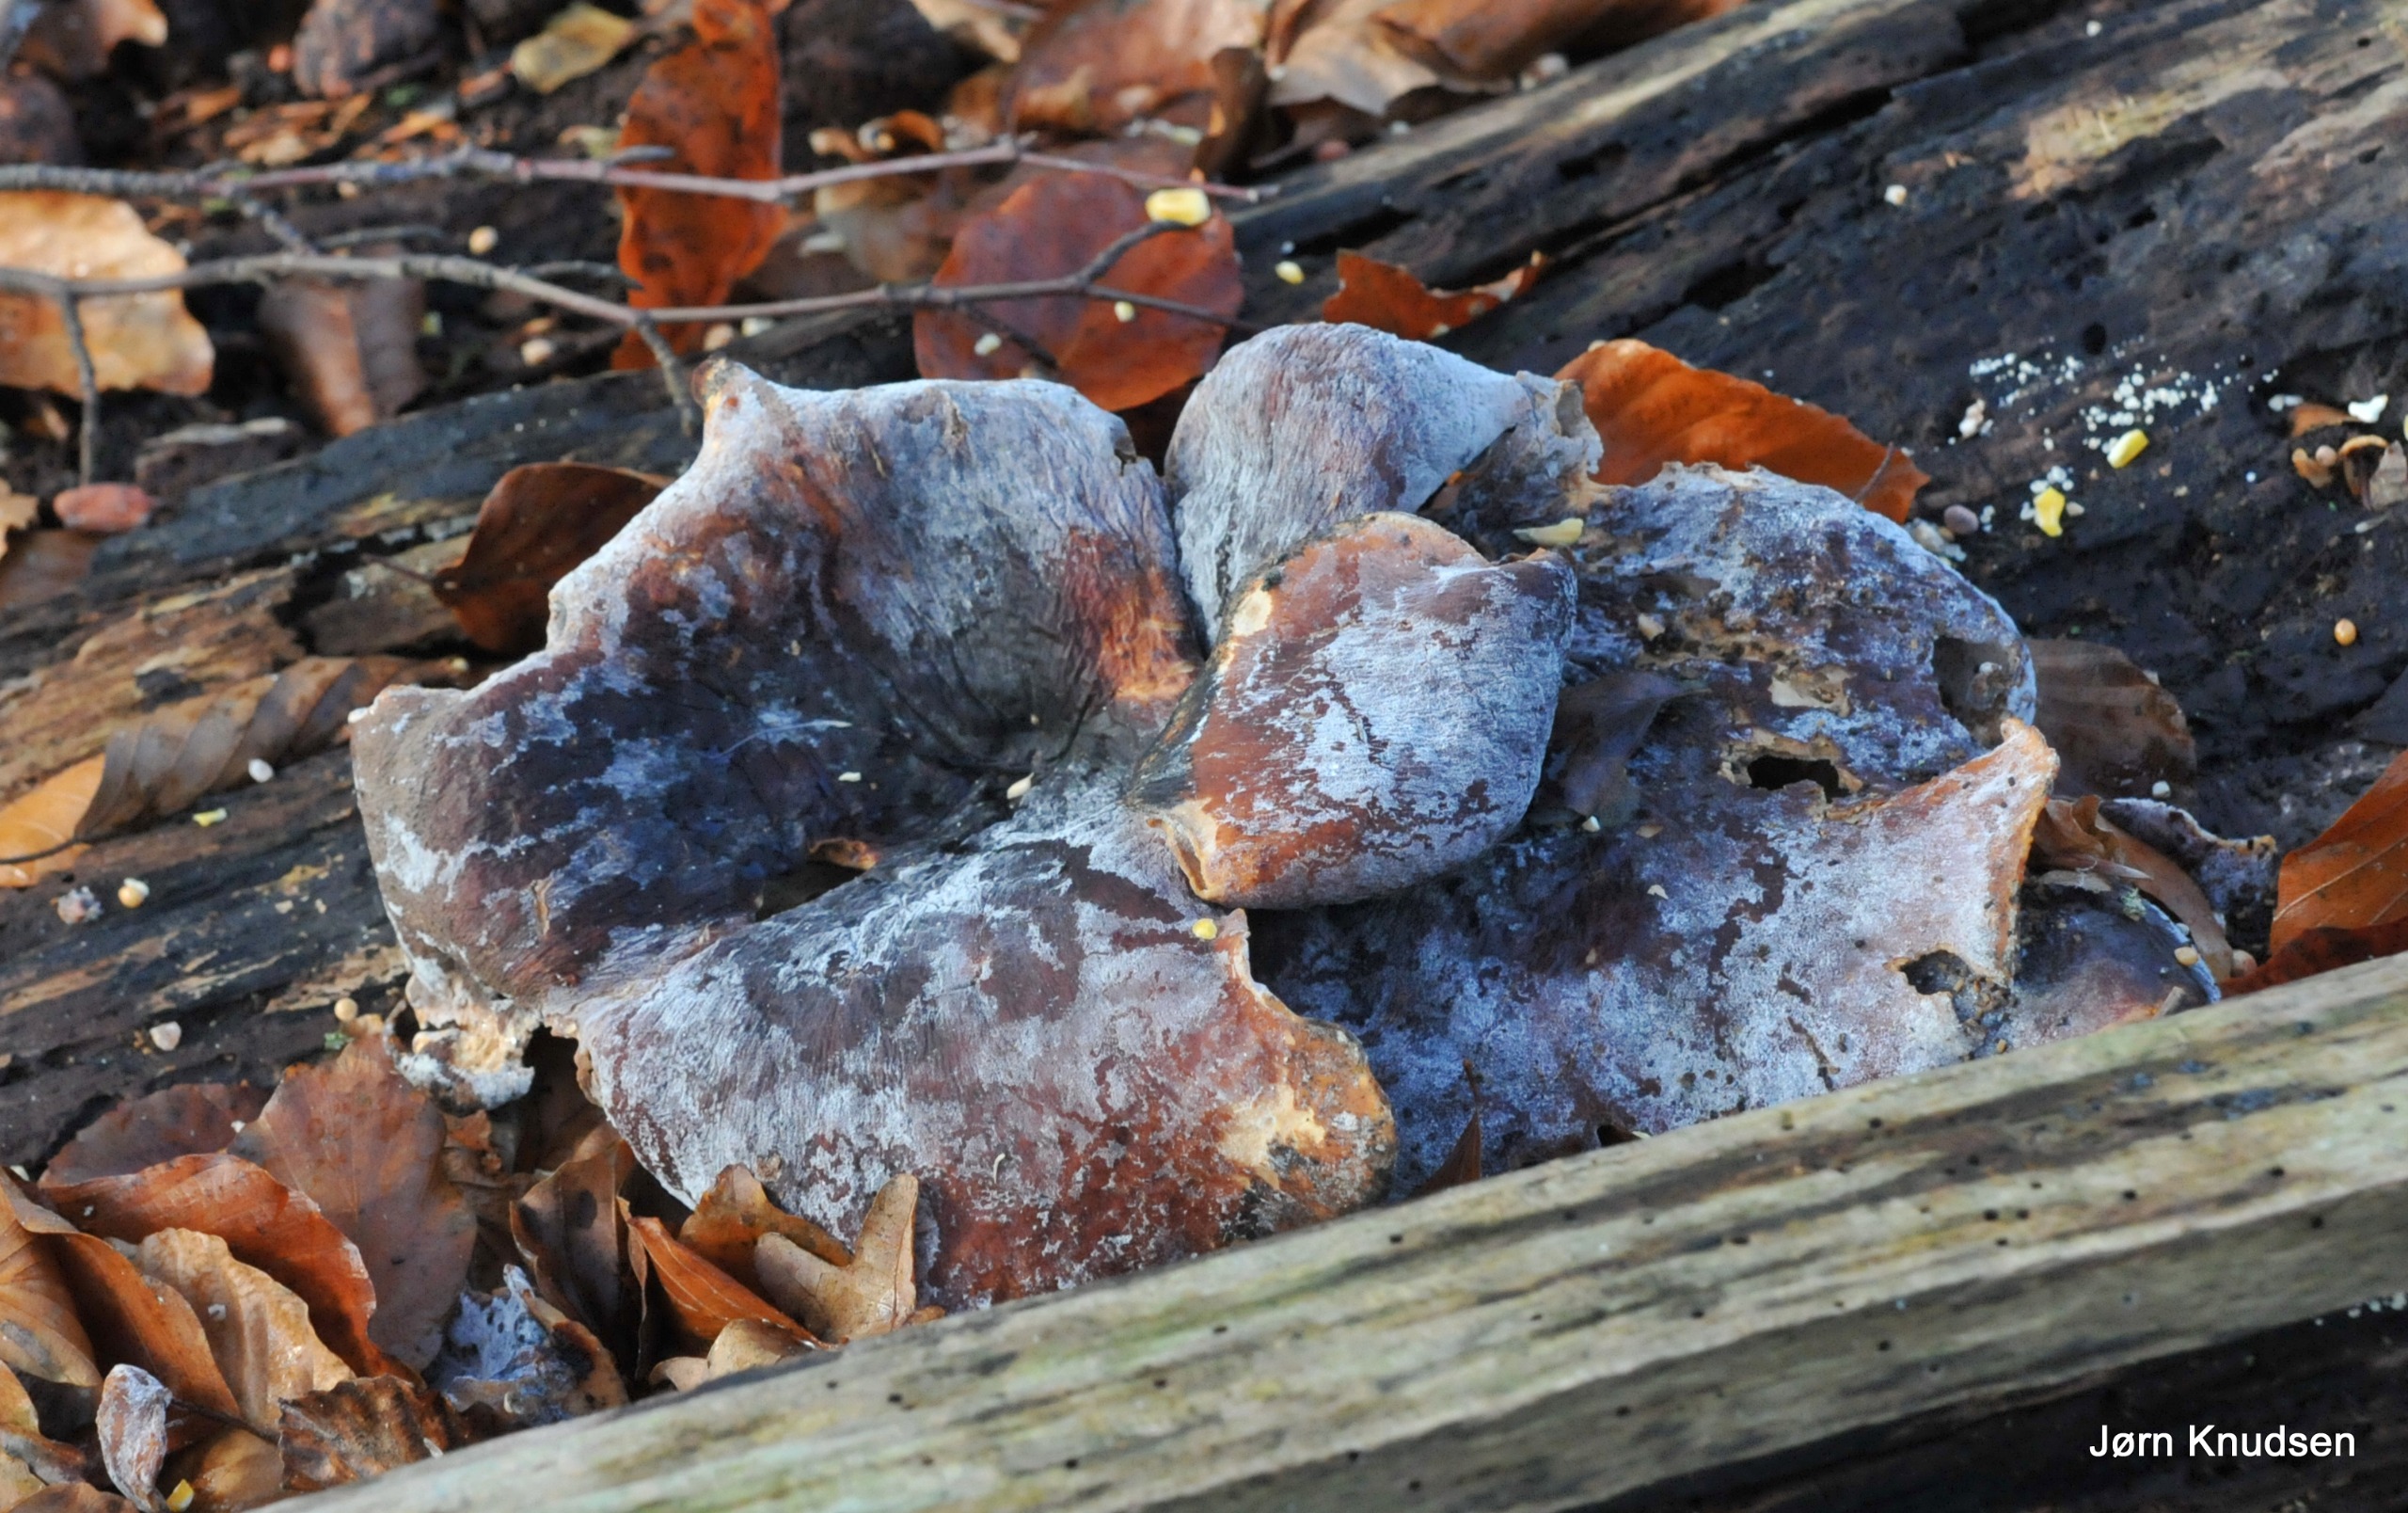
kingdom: Fungi
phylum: Basidiomycota
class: Agaricomycetes
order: Auriculariales
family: Auriculariaceae
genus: Auricularia
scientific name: Auricularia auricula-judae
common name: Almindelig judasøre
